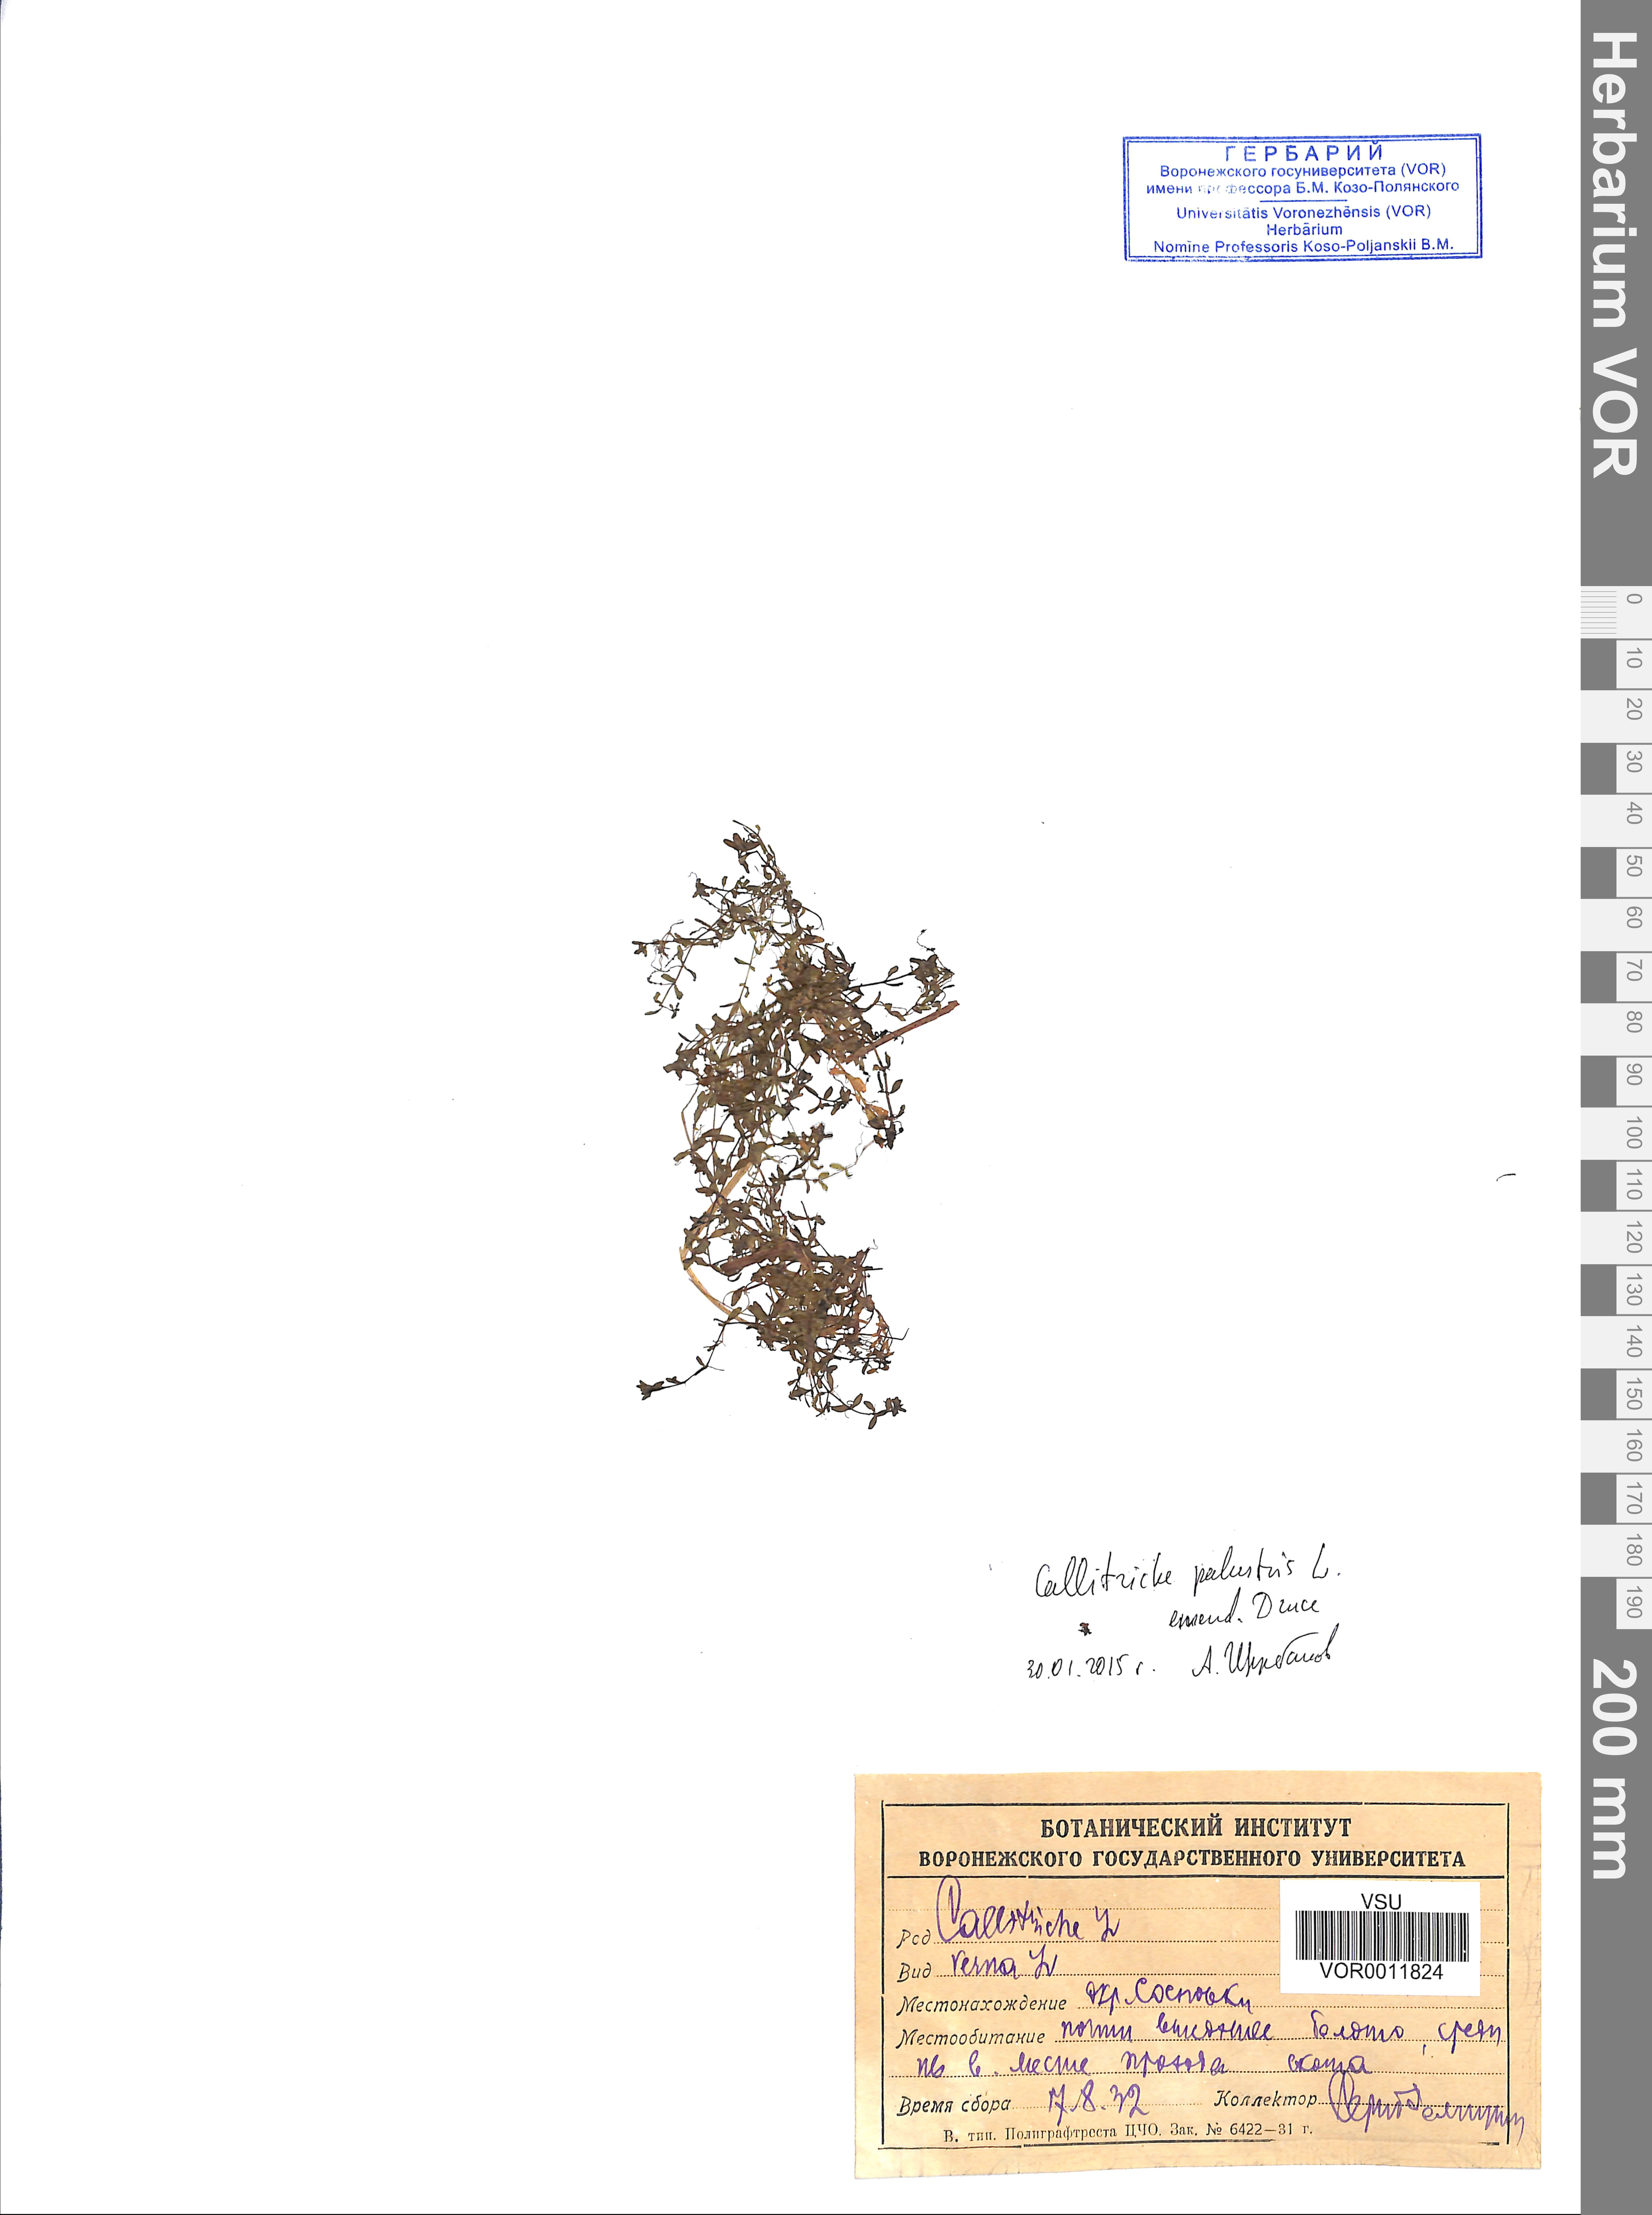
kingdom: Plantae
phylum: Tracheophyta
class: Magnoliopsida
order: Lamiales
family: Plantaginaceae
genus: Callitriche
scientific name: Callitriche palustris
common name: Spring water-starwort
